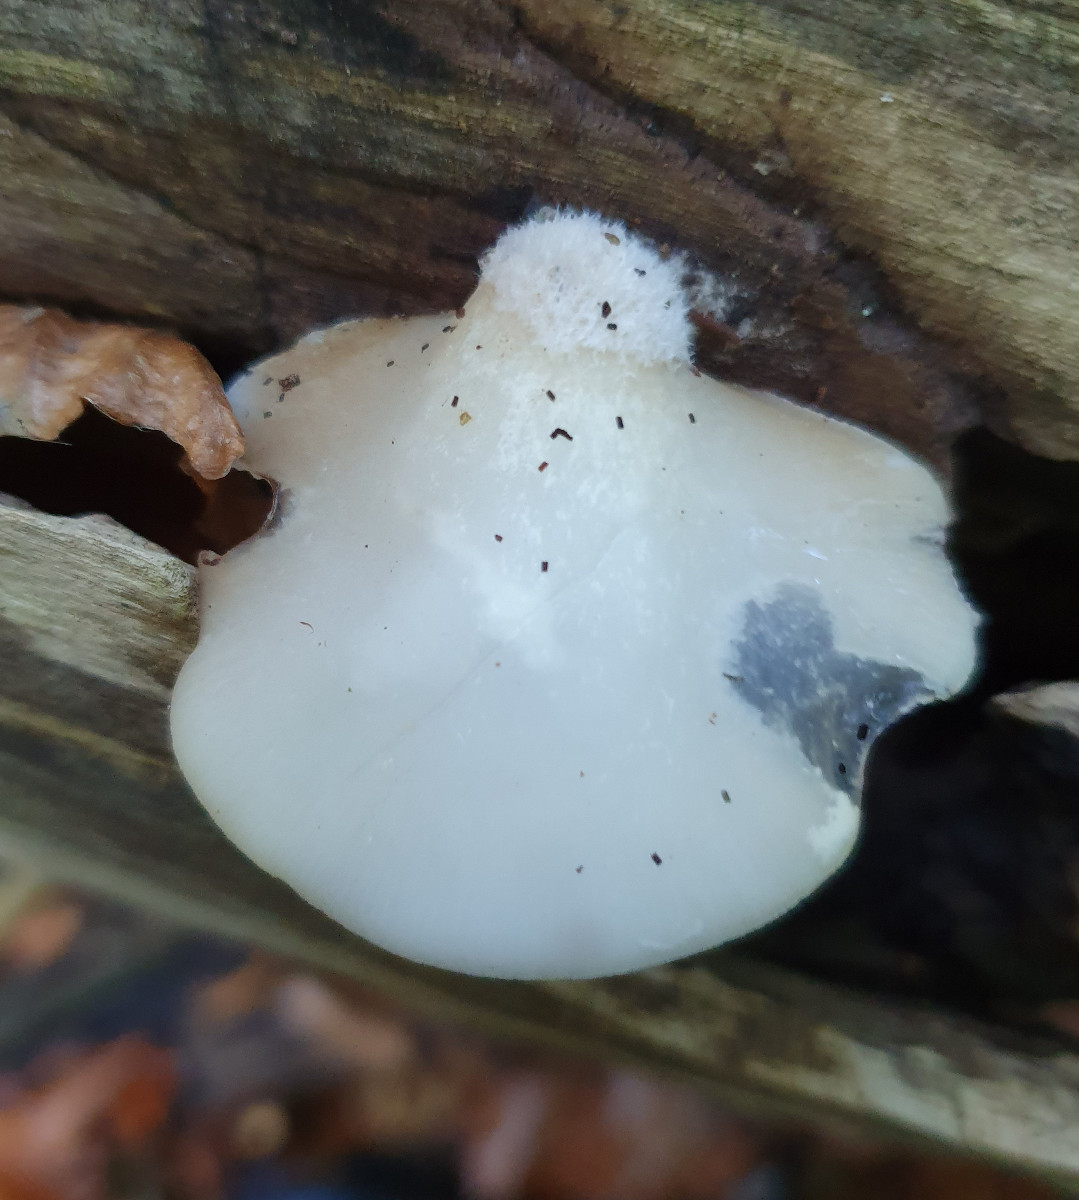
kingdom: Fungi
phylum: Basidiomycota
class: Agaricomycetes
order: Agaricales
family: Crepidotaceae
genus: Crepidotus
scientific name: Crepidotus mollis
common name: blød muslingesvamp
